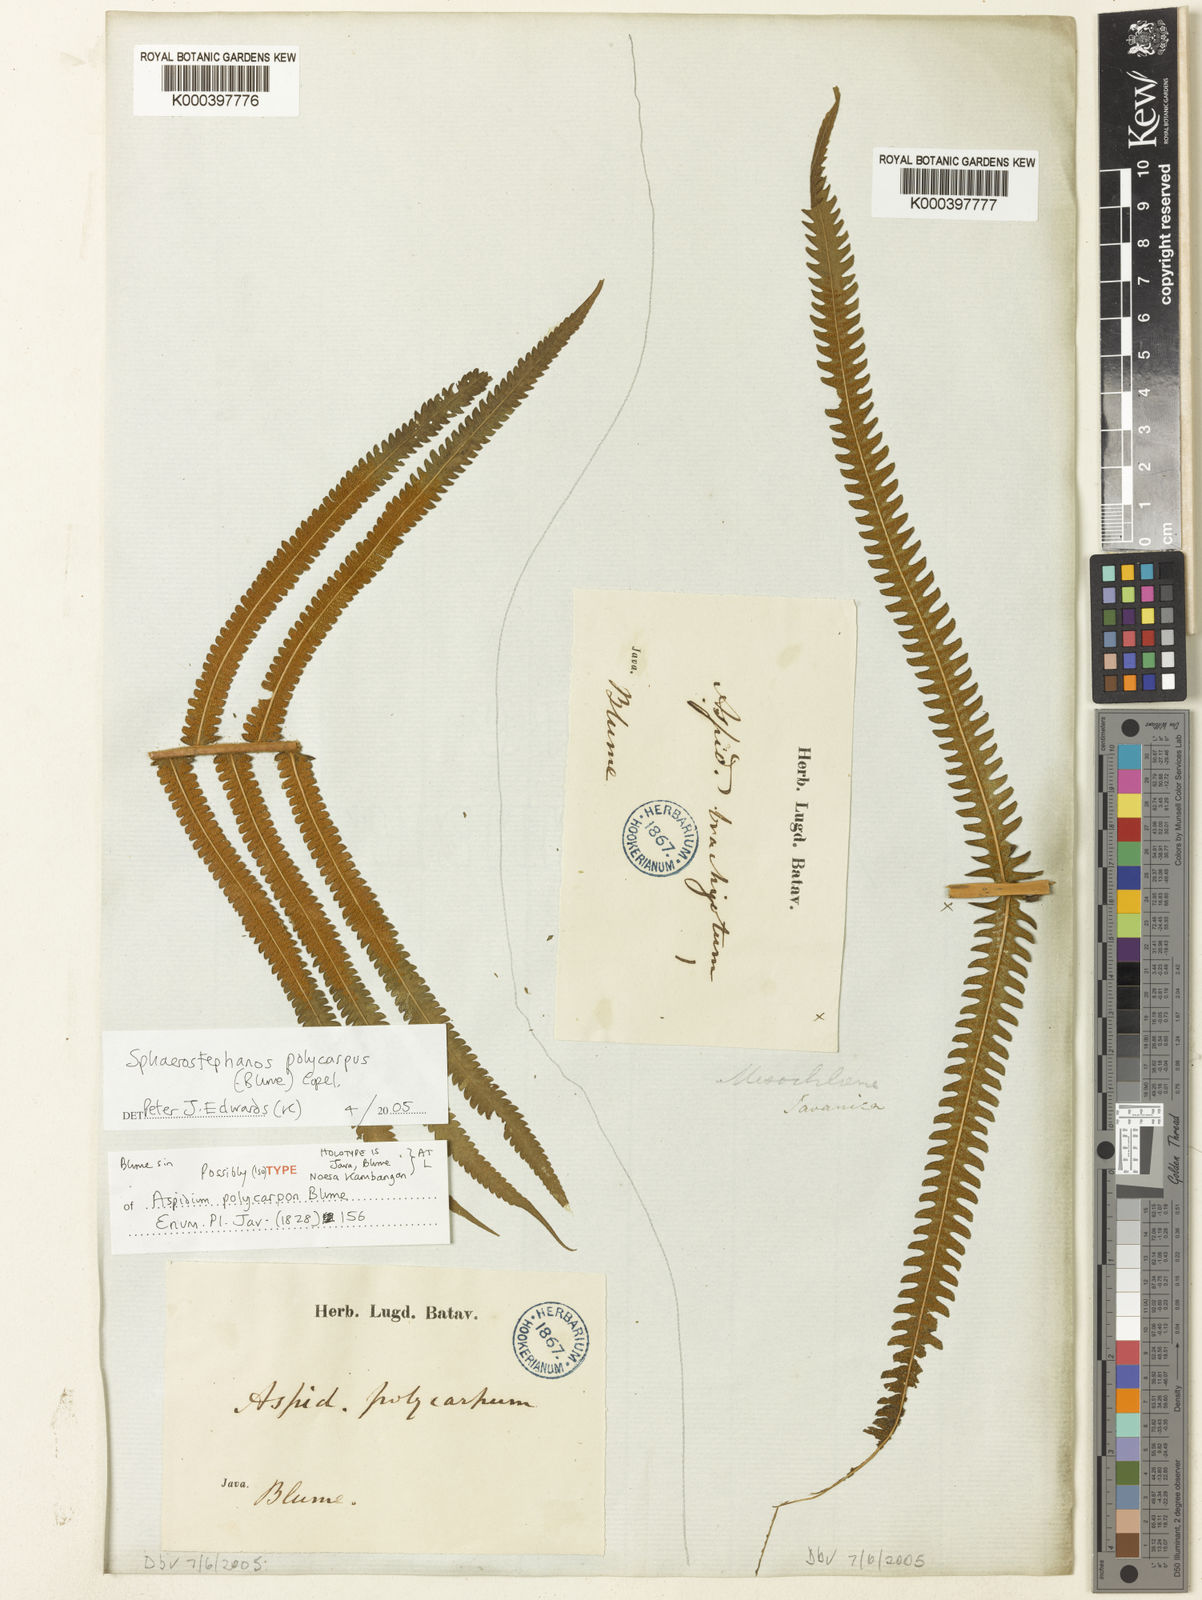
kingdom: Plantae
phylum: Tracheophyta
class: Polypodiopsida
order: Polypodiales
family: Thelypteridaceae
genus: Sphaerostephanos
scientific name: Sphaerostephanos polycarpos
